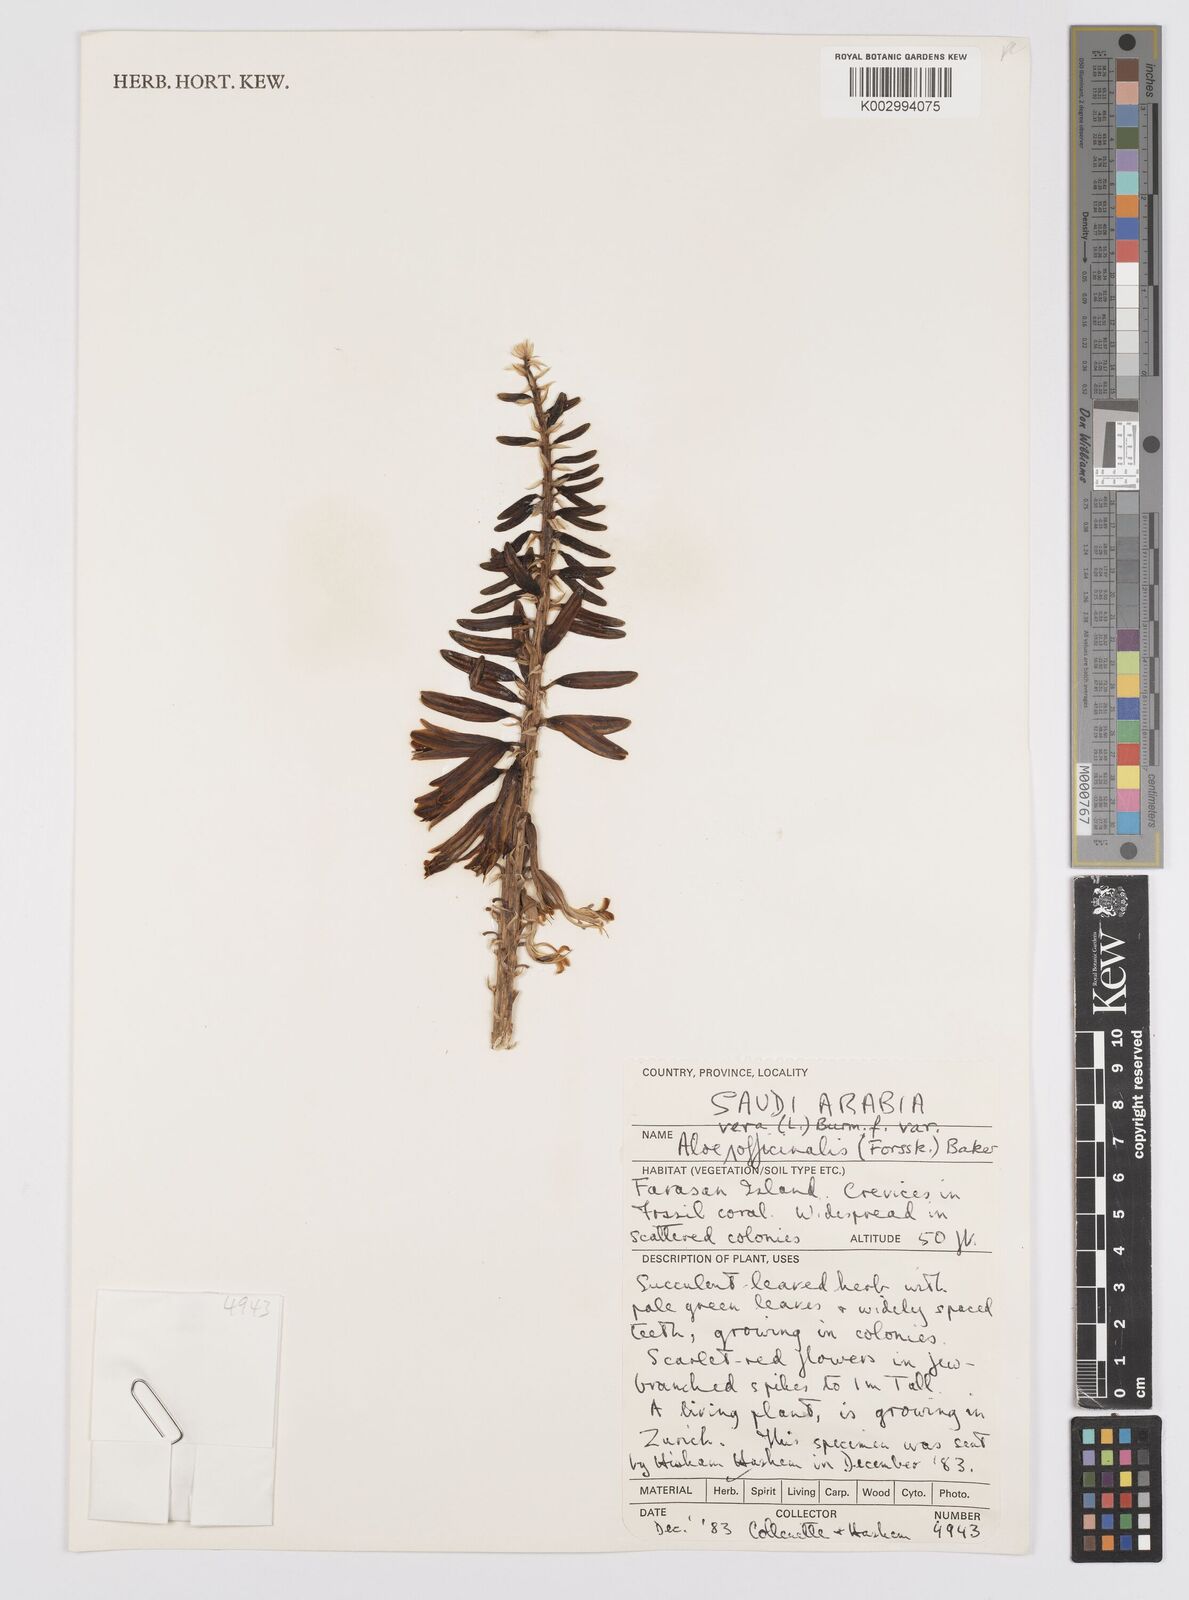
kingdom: Plantae
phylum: Tracheophyta
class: Liliopsida
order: Asparagales
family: Asphodelaceae
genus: Aloe
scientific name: Aloe officinalis
